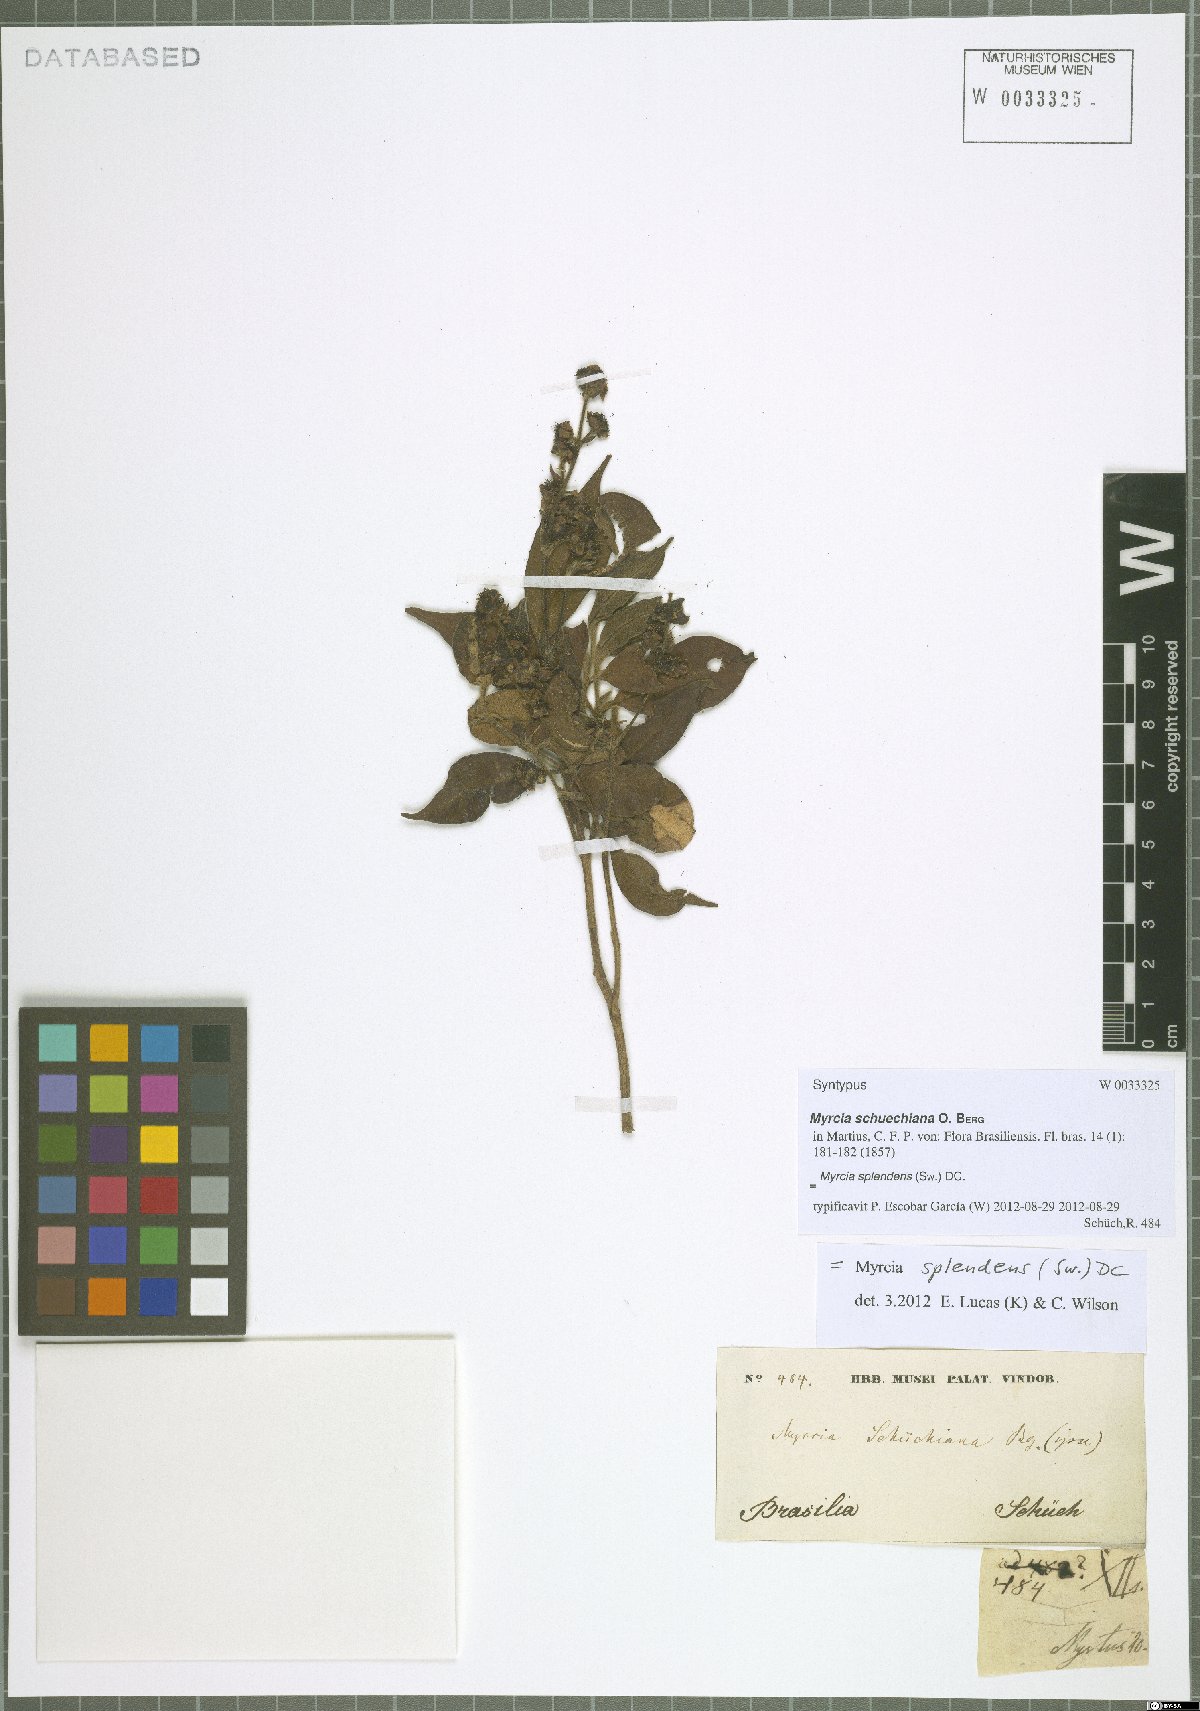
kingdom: Plantae
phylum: Tracheophyta
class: Magnoliopsida
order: Myrtales
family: Myrtaceae
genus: Myrcia
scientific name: Myrcia splendens
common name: Surinam cherry
